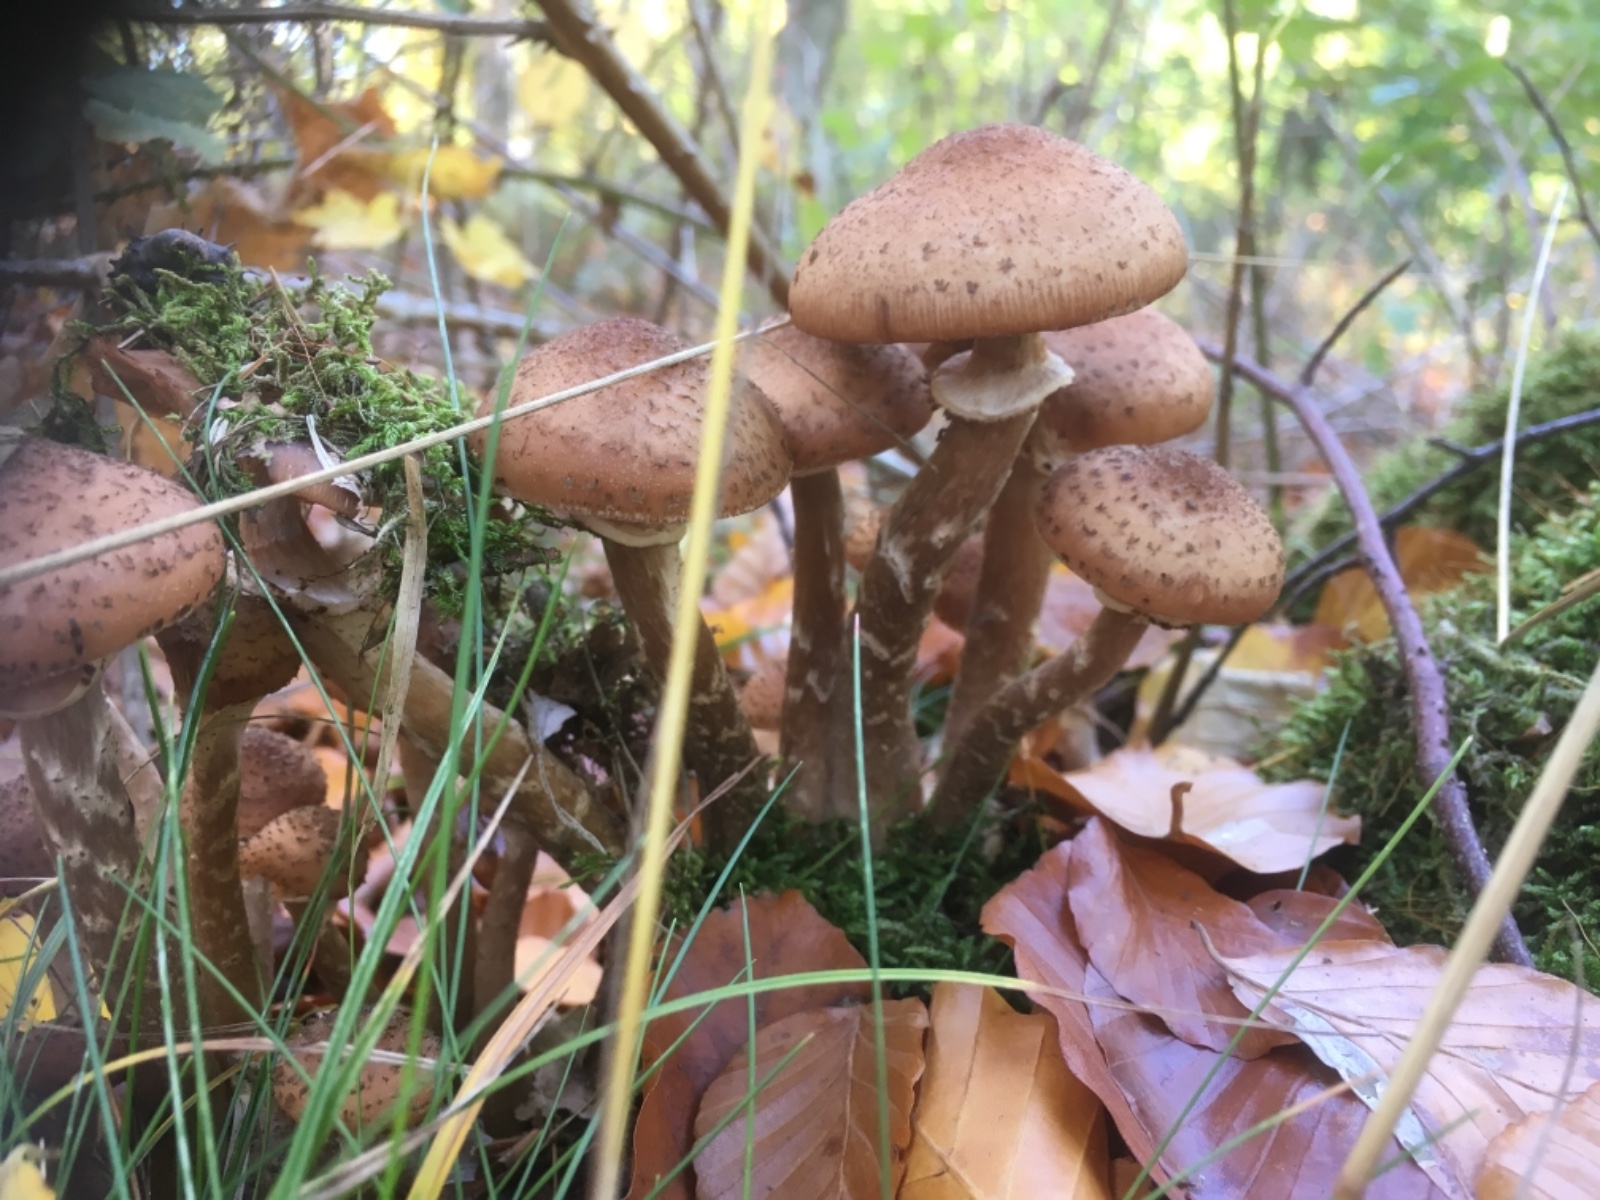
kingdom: Fungi
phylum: Basidiomycota
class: Agaricomycetes
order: Agaricales
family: Physalacriaceae
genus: Armillaria
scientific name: Armillaria
